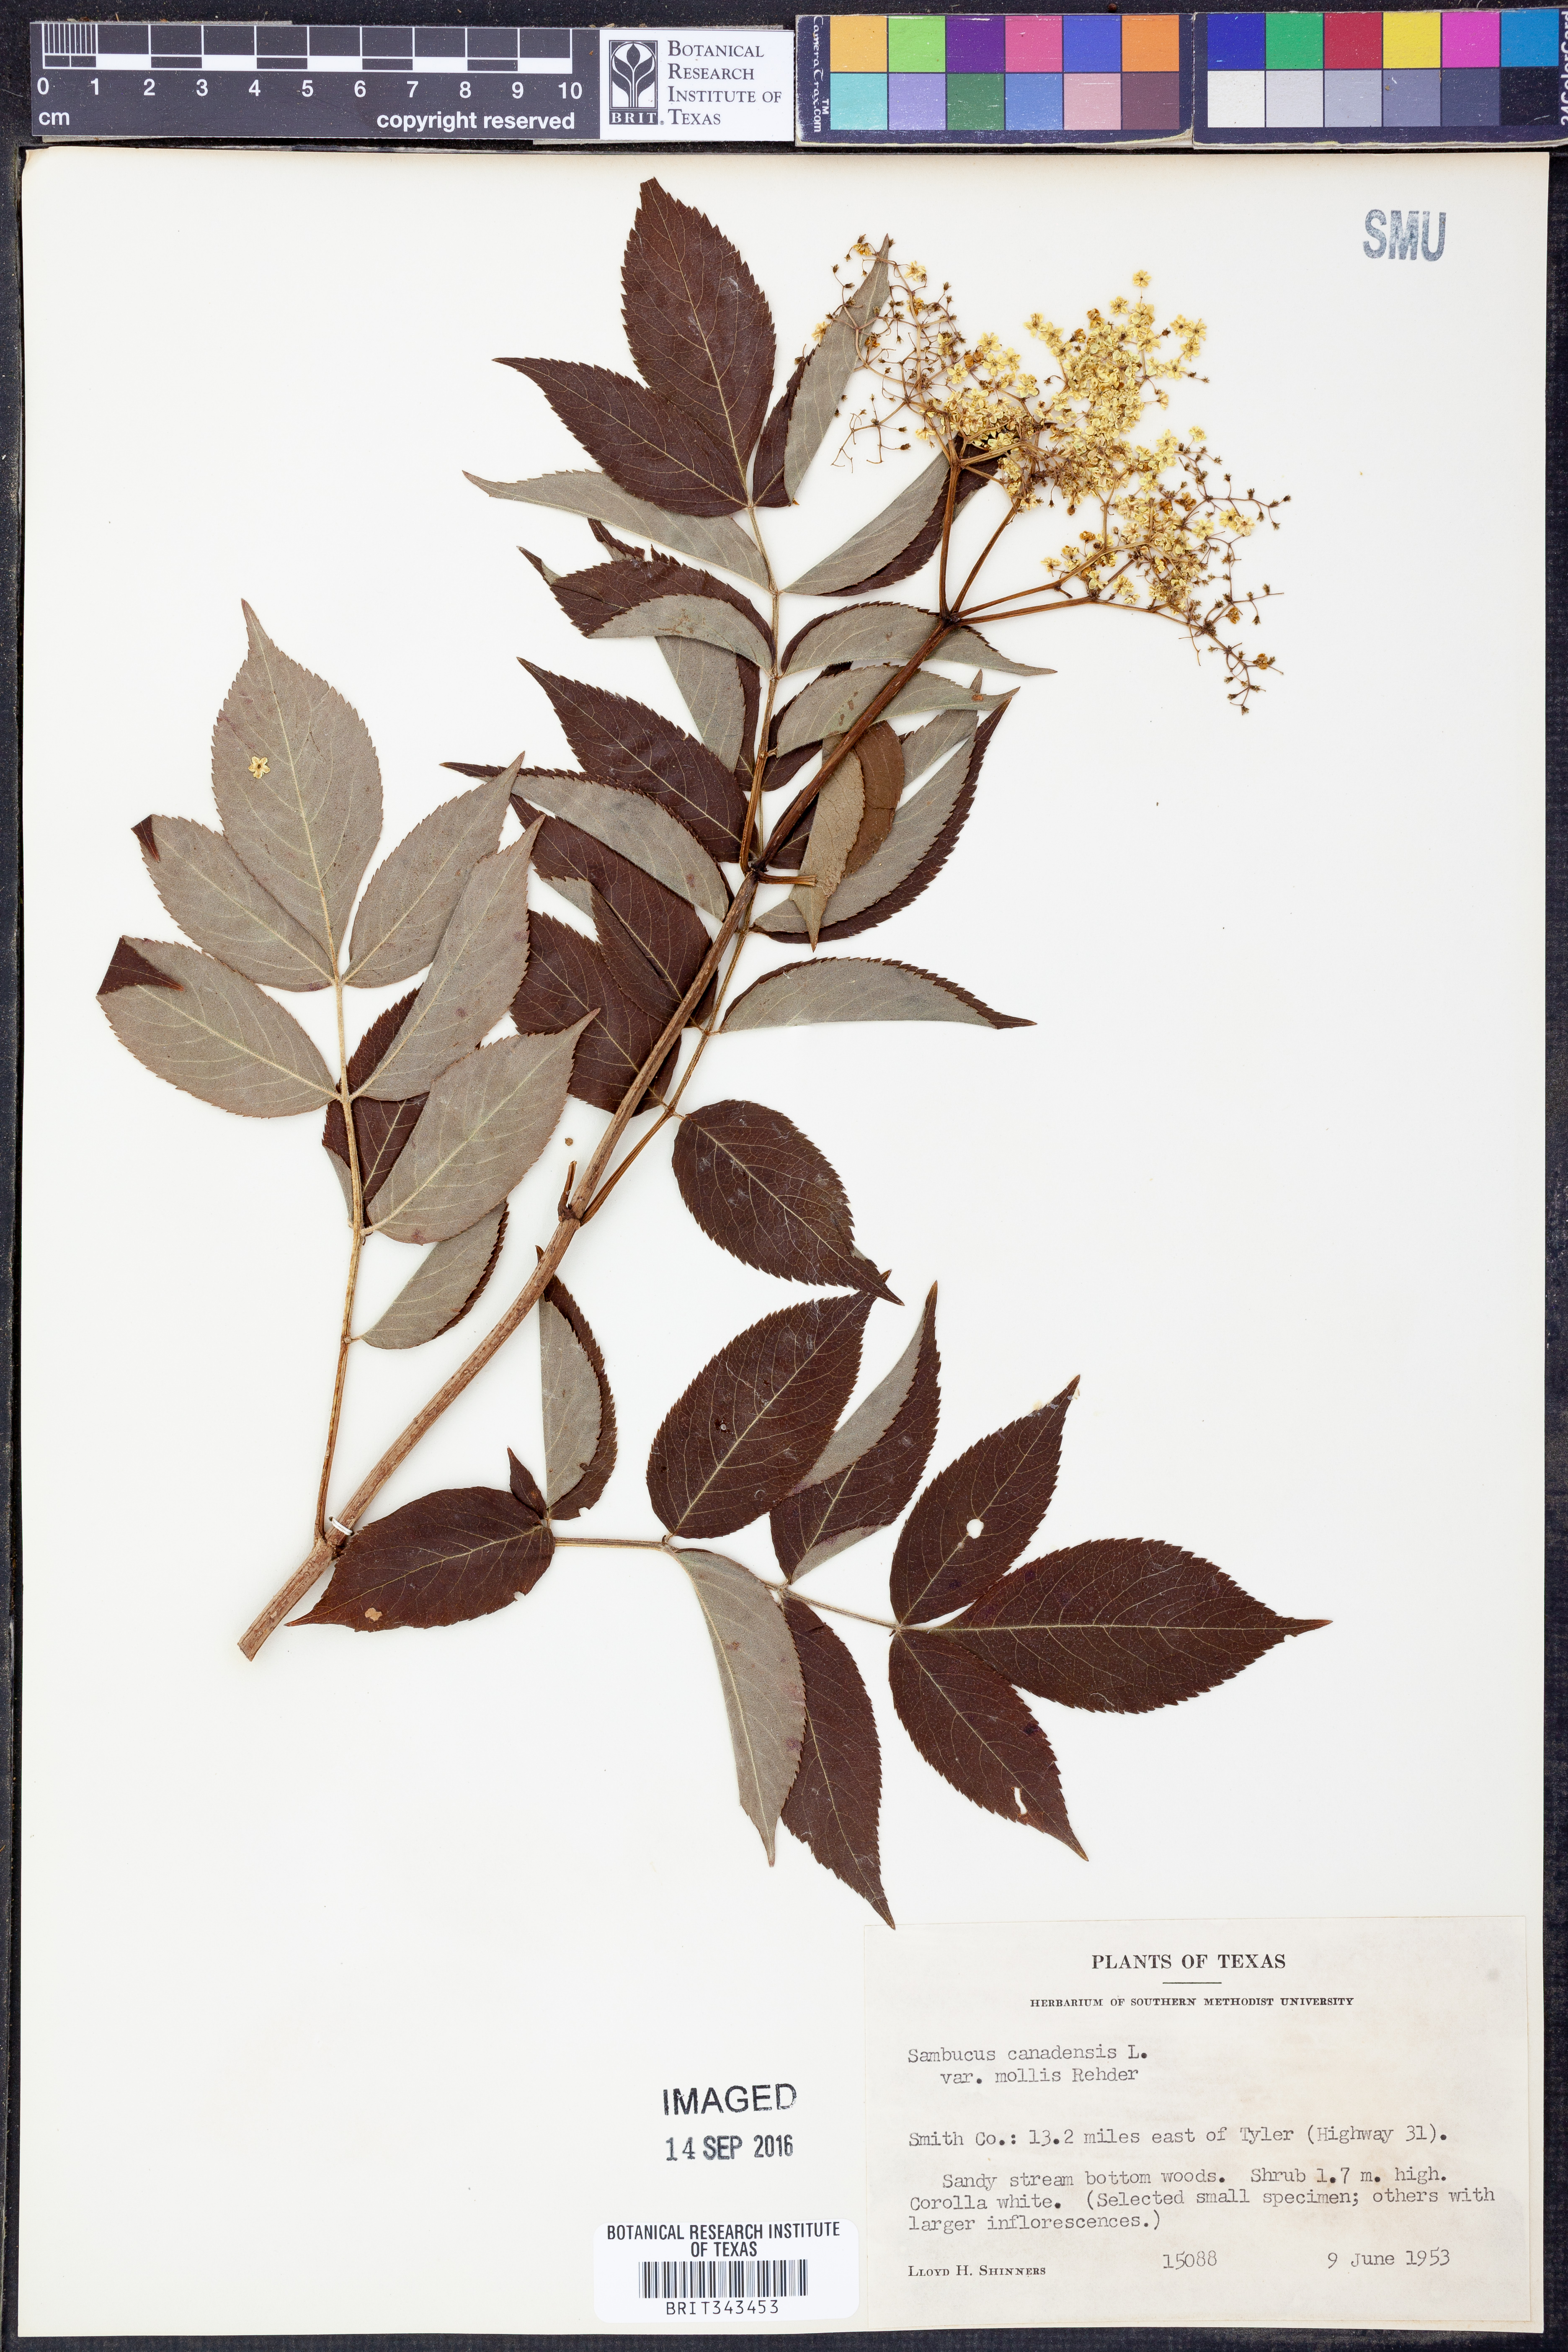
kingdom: Plantae
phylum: Tracheophyta
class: Magnoliopsida
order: Dipsacales
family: Viburnaceae
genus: Sambucus
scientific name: Sambucus canadensis
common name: American elder
